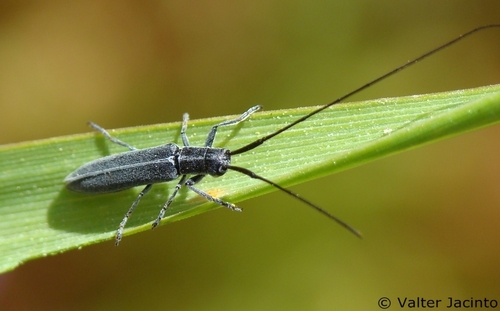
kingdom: Animalia
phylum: Arthropoda
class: Insecta
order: Coleoptera
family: Cerambycidae
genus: Calamobius
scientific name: Calamobius filum
